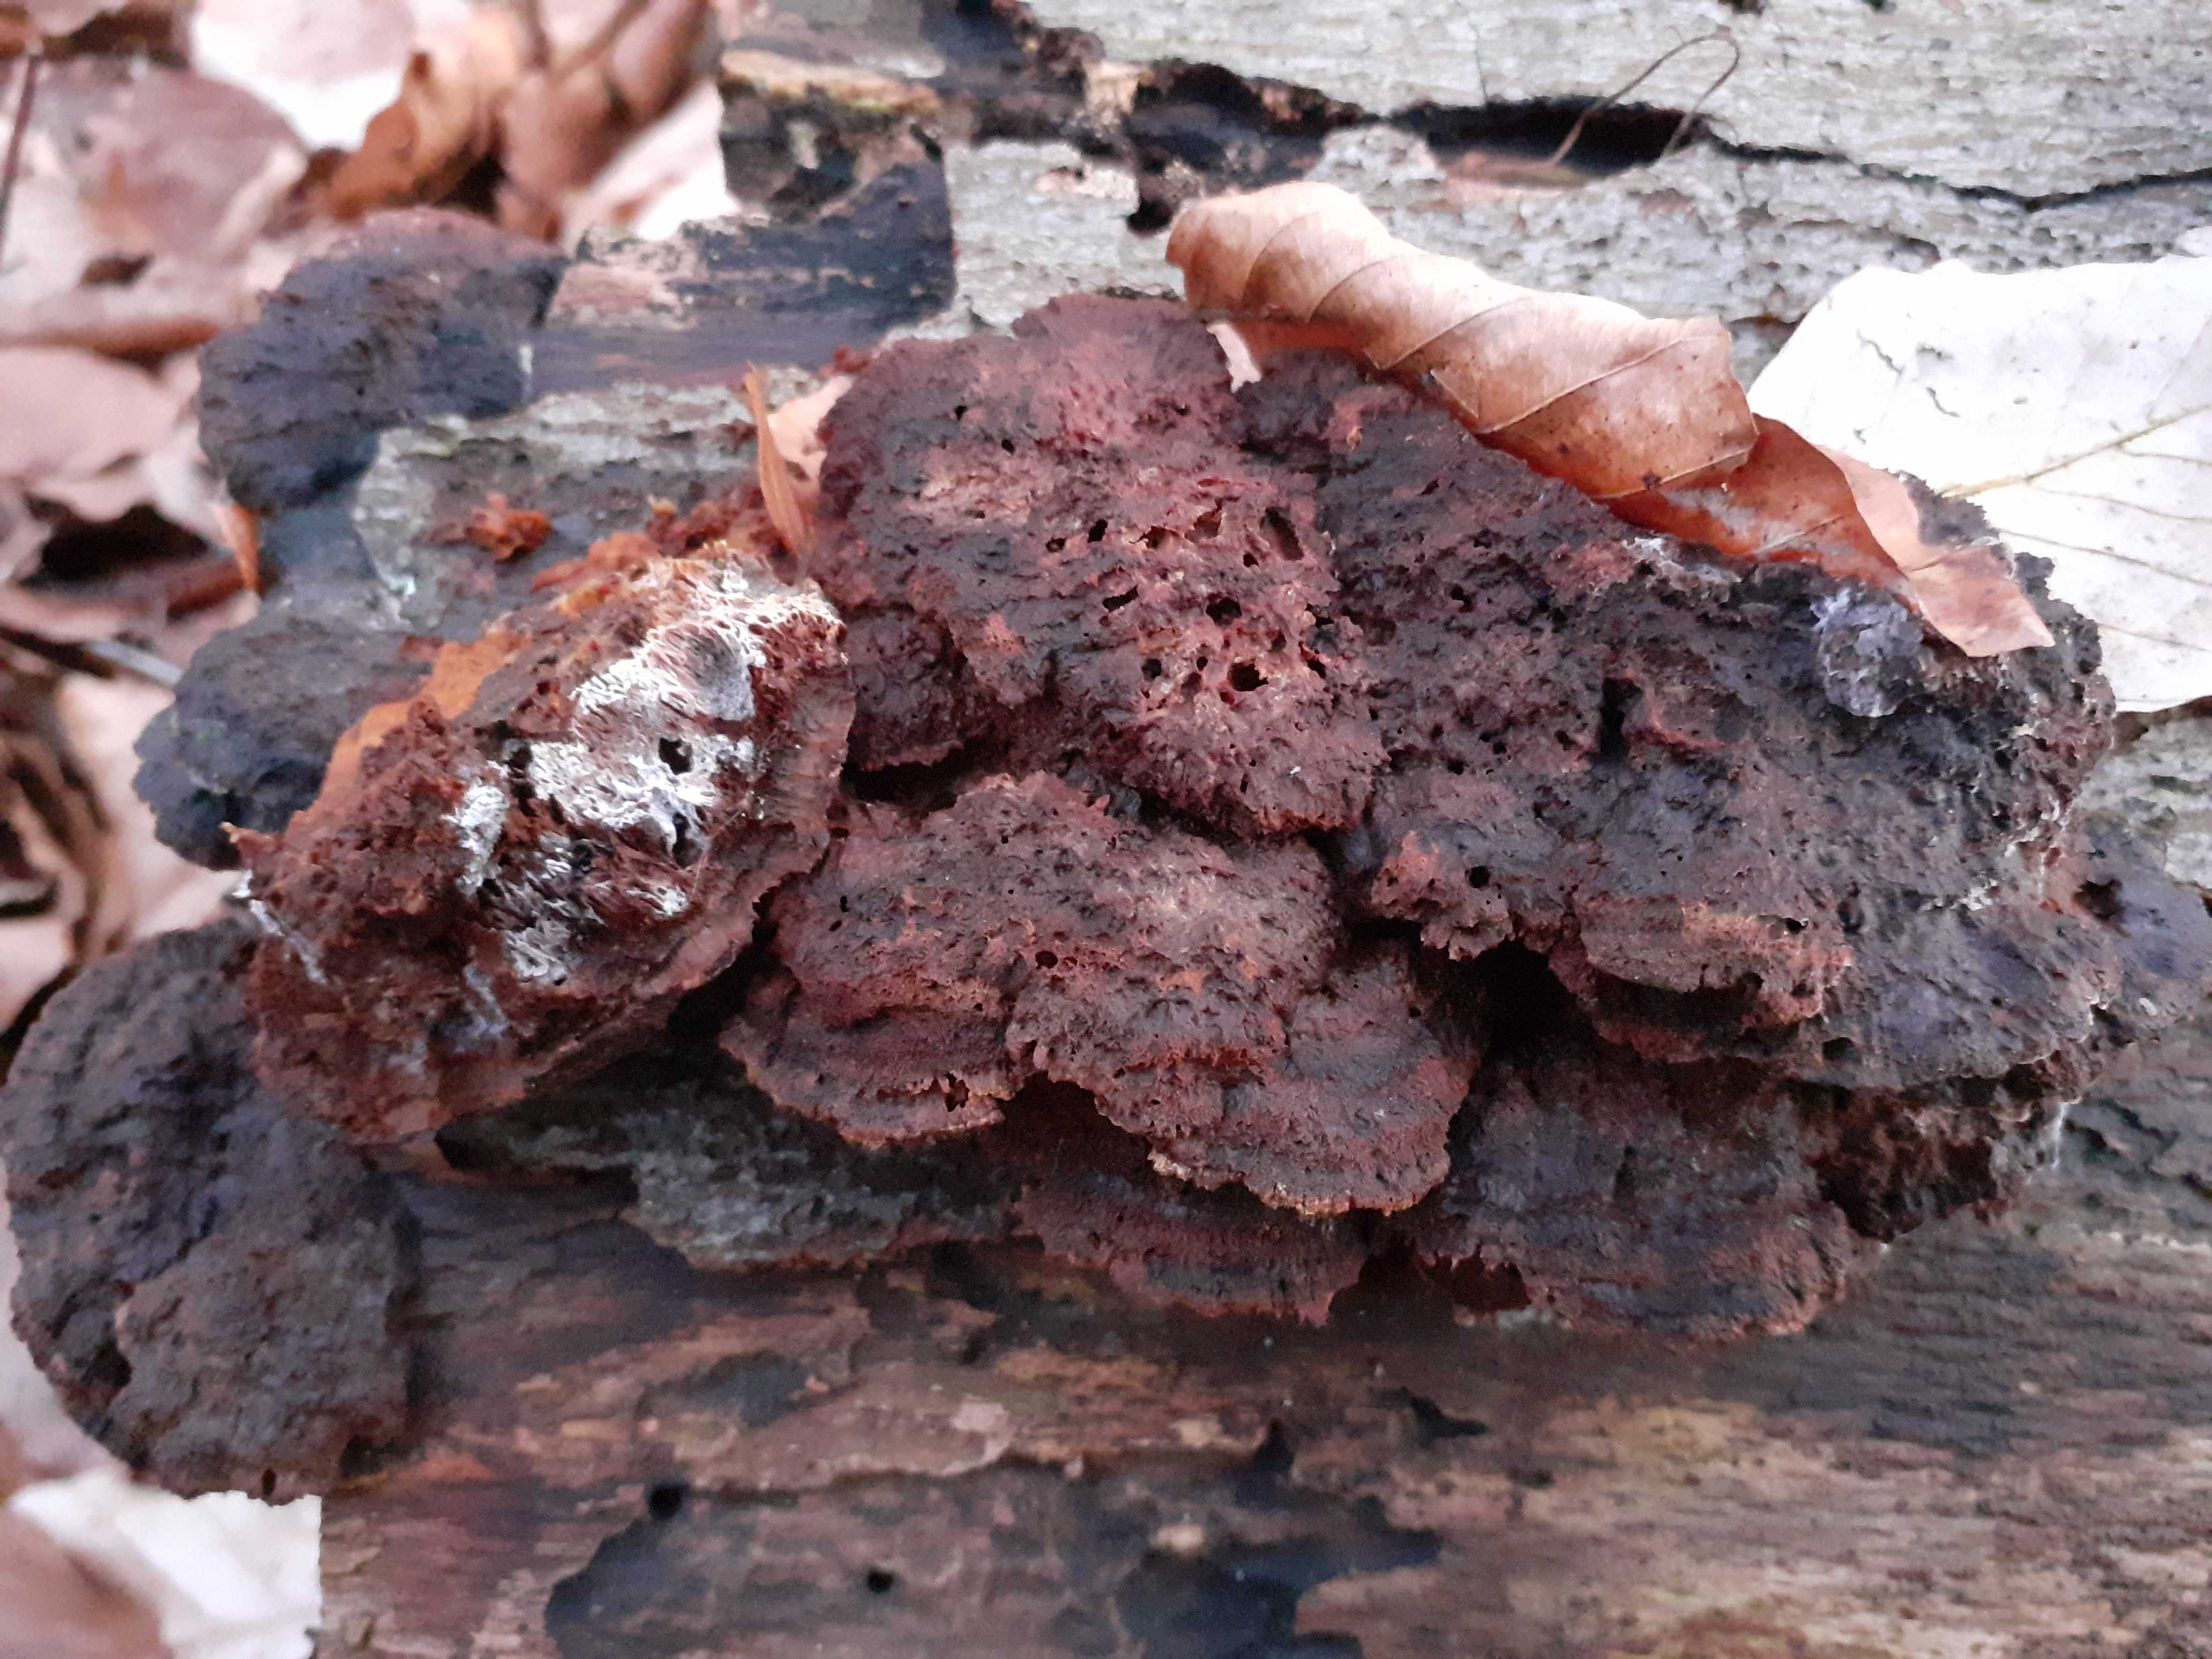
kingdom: Fungi
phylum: Basidiomycota
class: Agaricomycetes
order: Hymenochaetales
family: Hymenochaetaceae
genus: Mensularia
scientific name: Mensularia nodulosa
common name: bøge-spejlporesvamp
